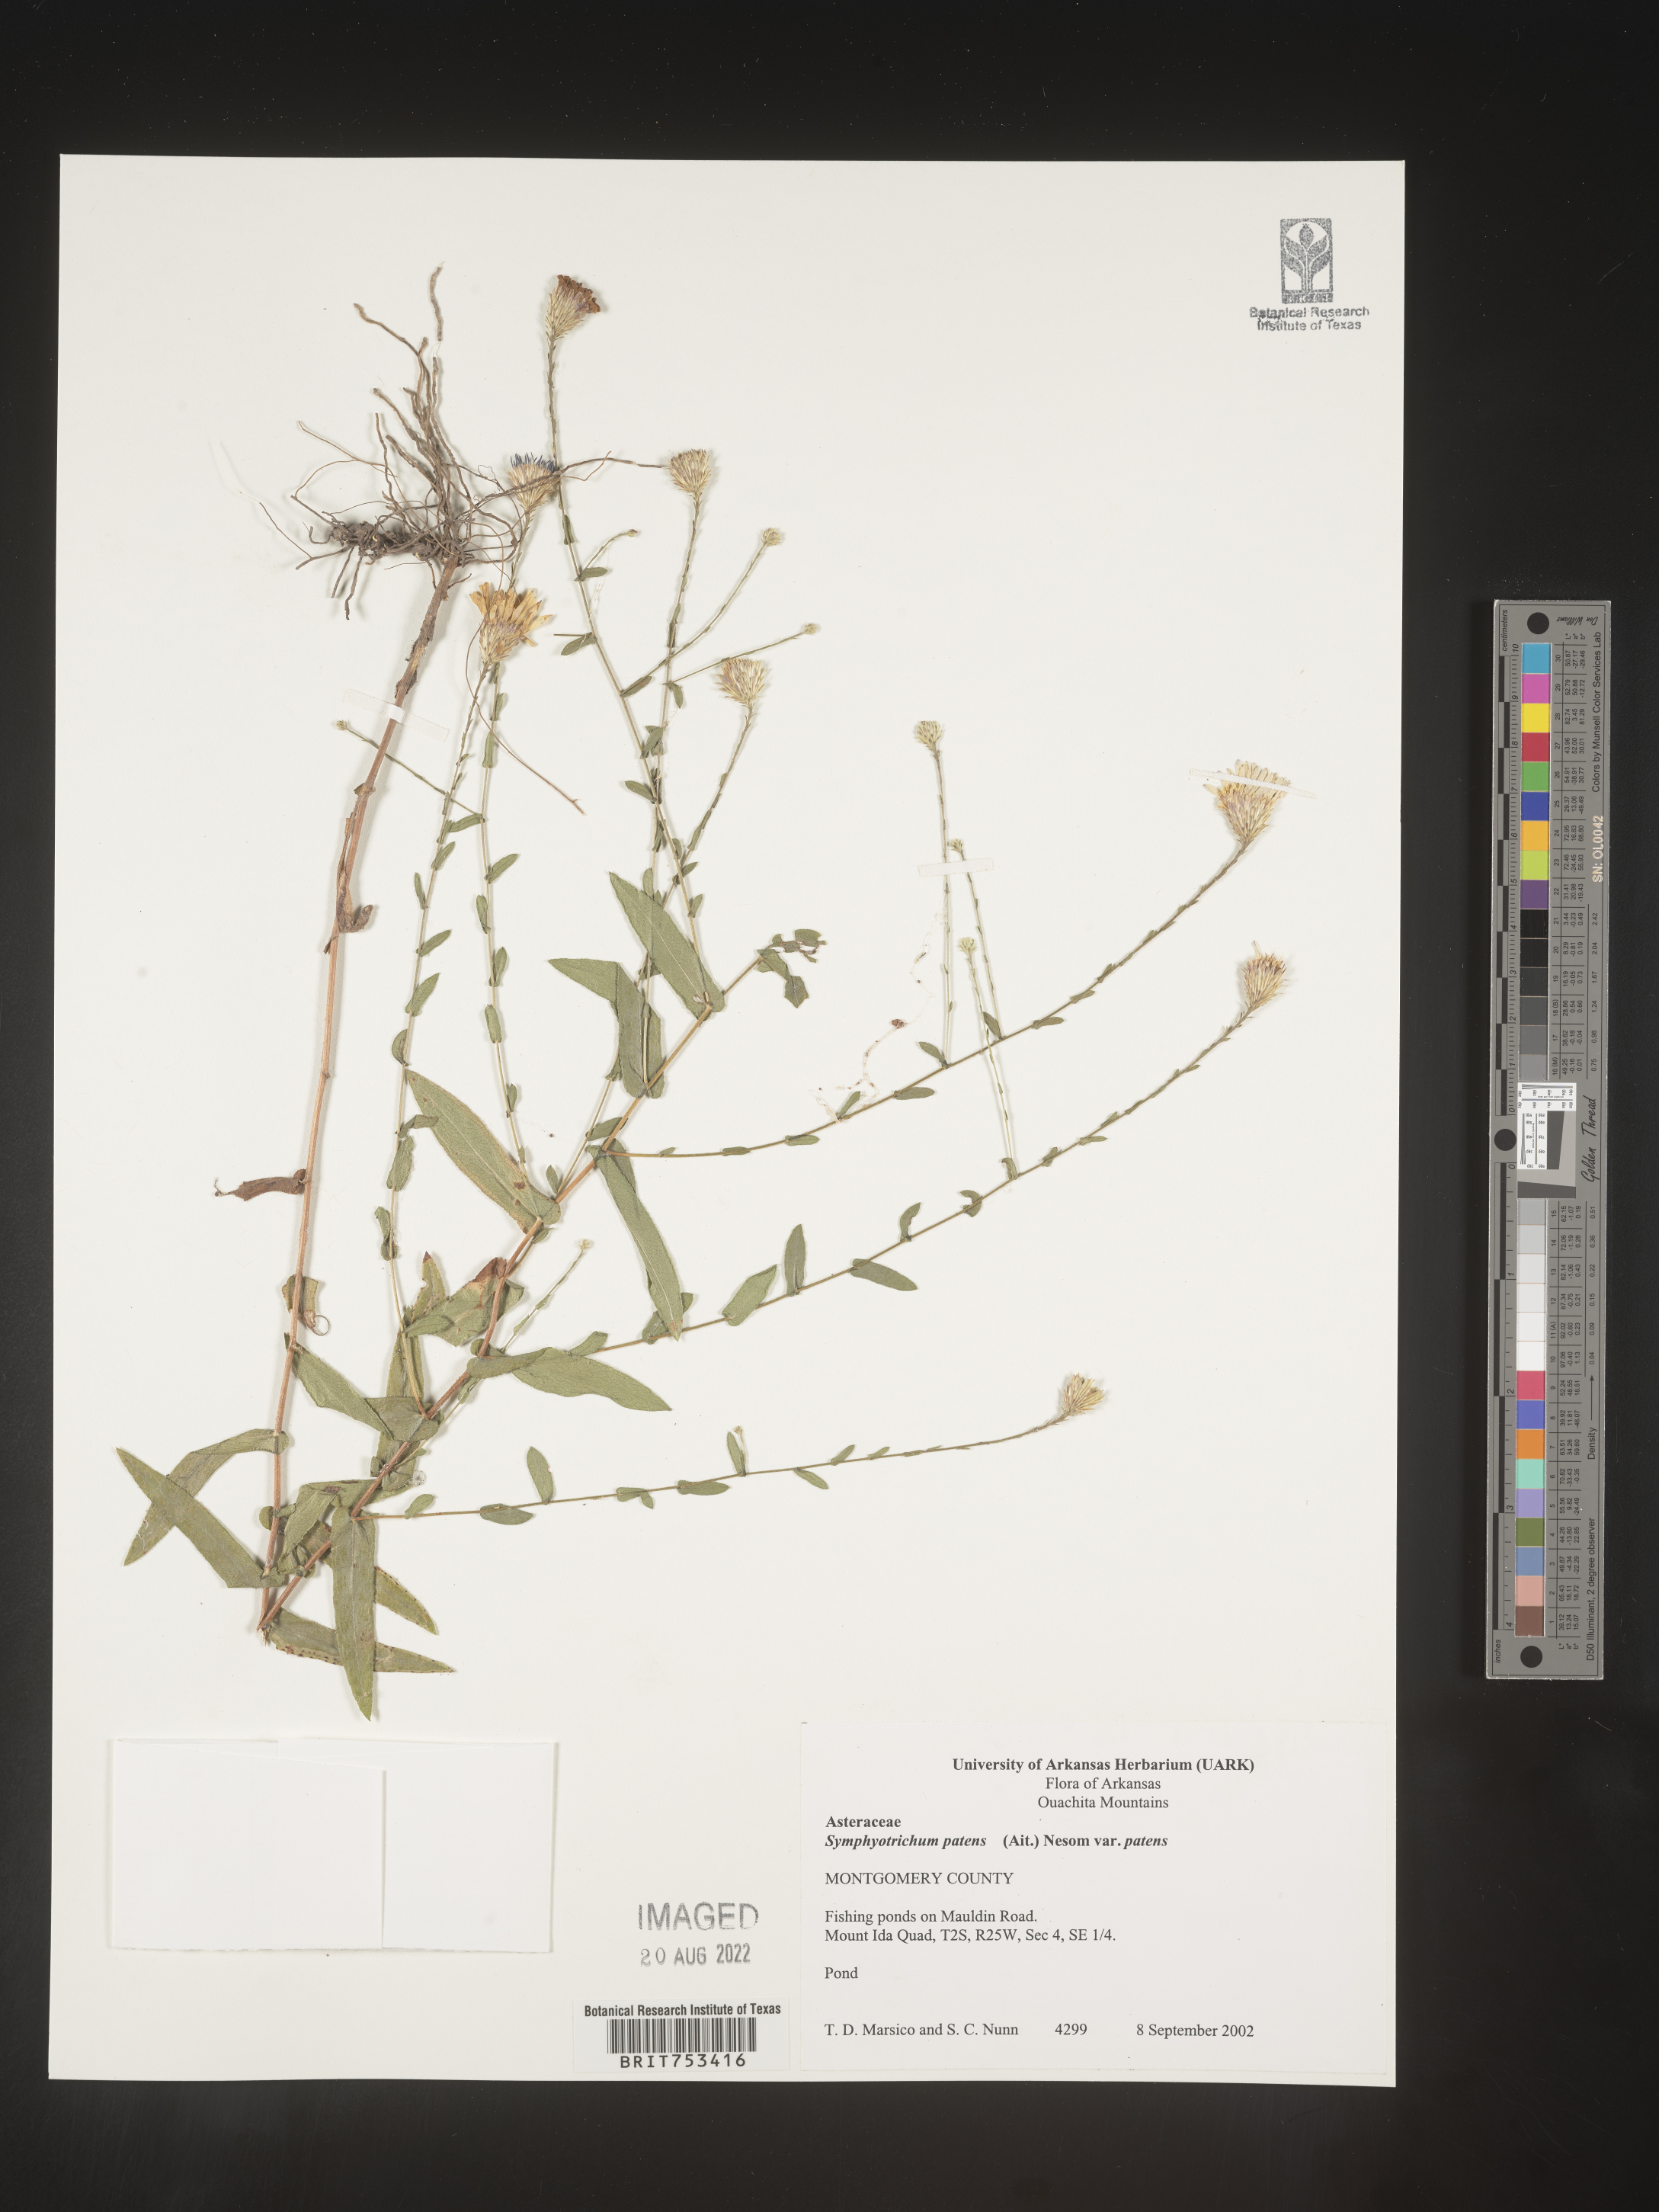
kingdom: Plantae
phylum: Tracheophyta
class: Magnoliopsida
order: Asterales
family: Asteraceae
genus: Symphyotrichum
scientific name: Symphyotrichum patens
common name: Late purple aster
